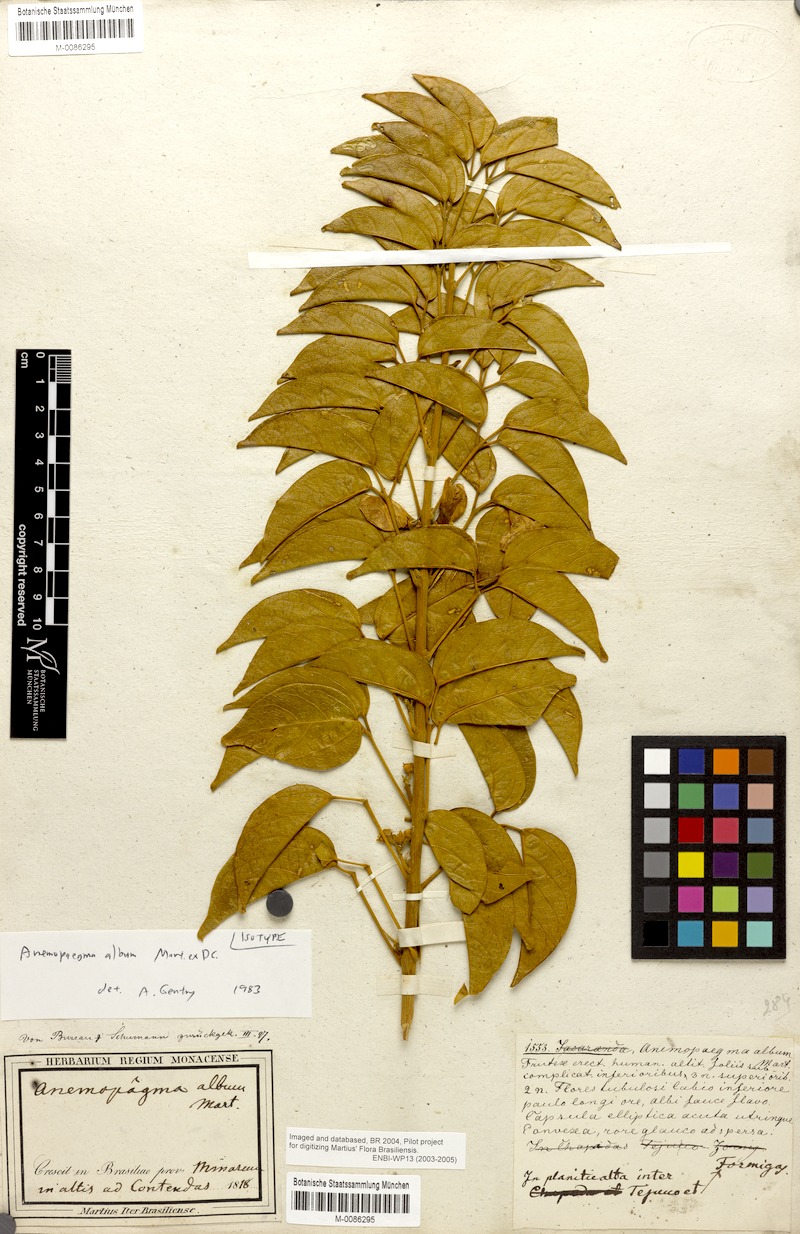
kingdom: Plantae
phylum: Tracheophyta
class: Magnoliopsida
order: Lamiales
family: Bignoniaceae
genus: Anemopaegma
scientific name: Anemopaegma album
